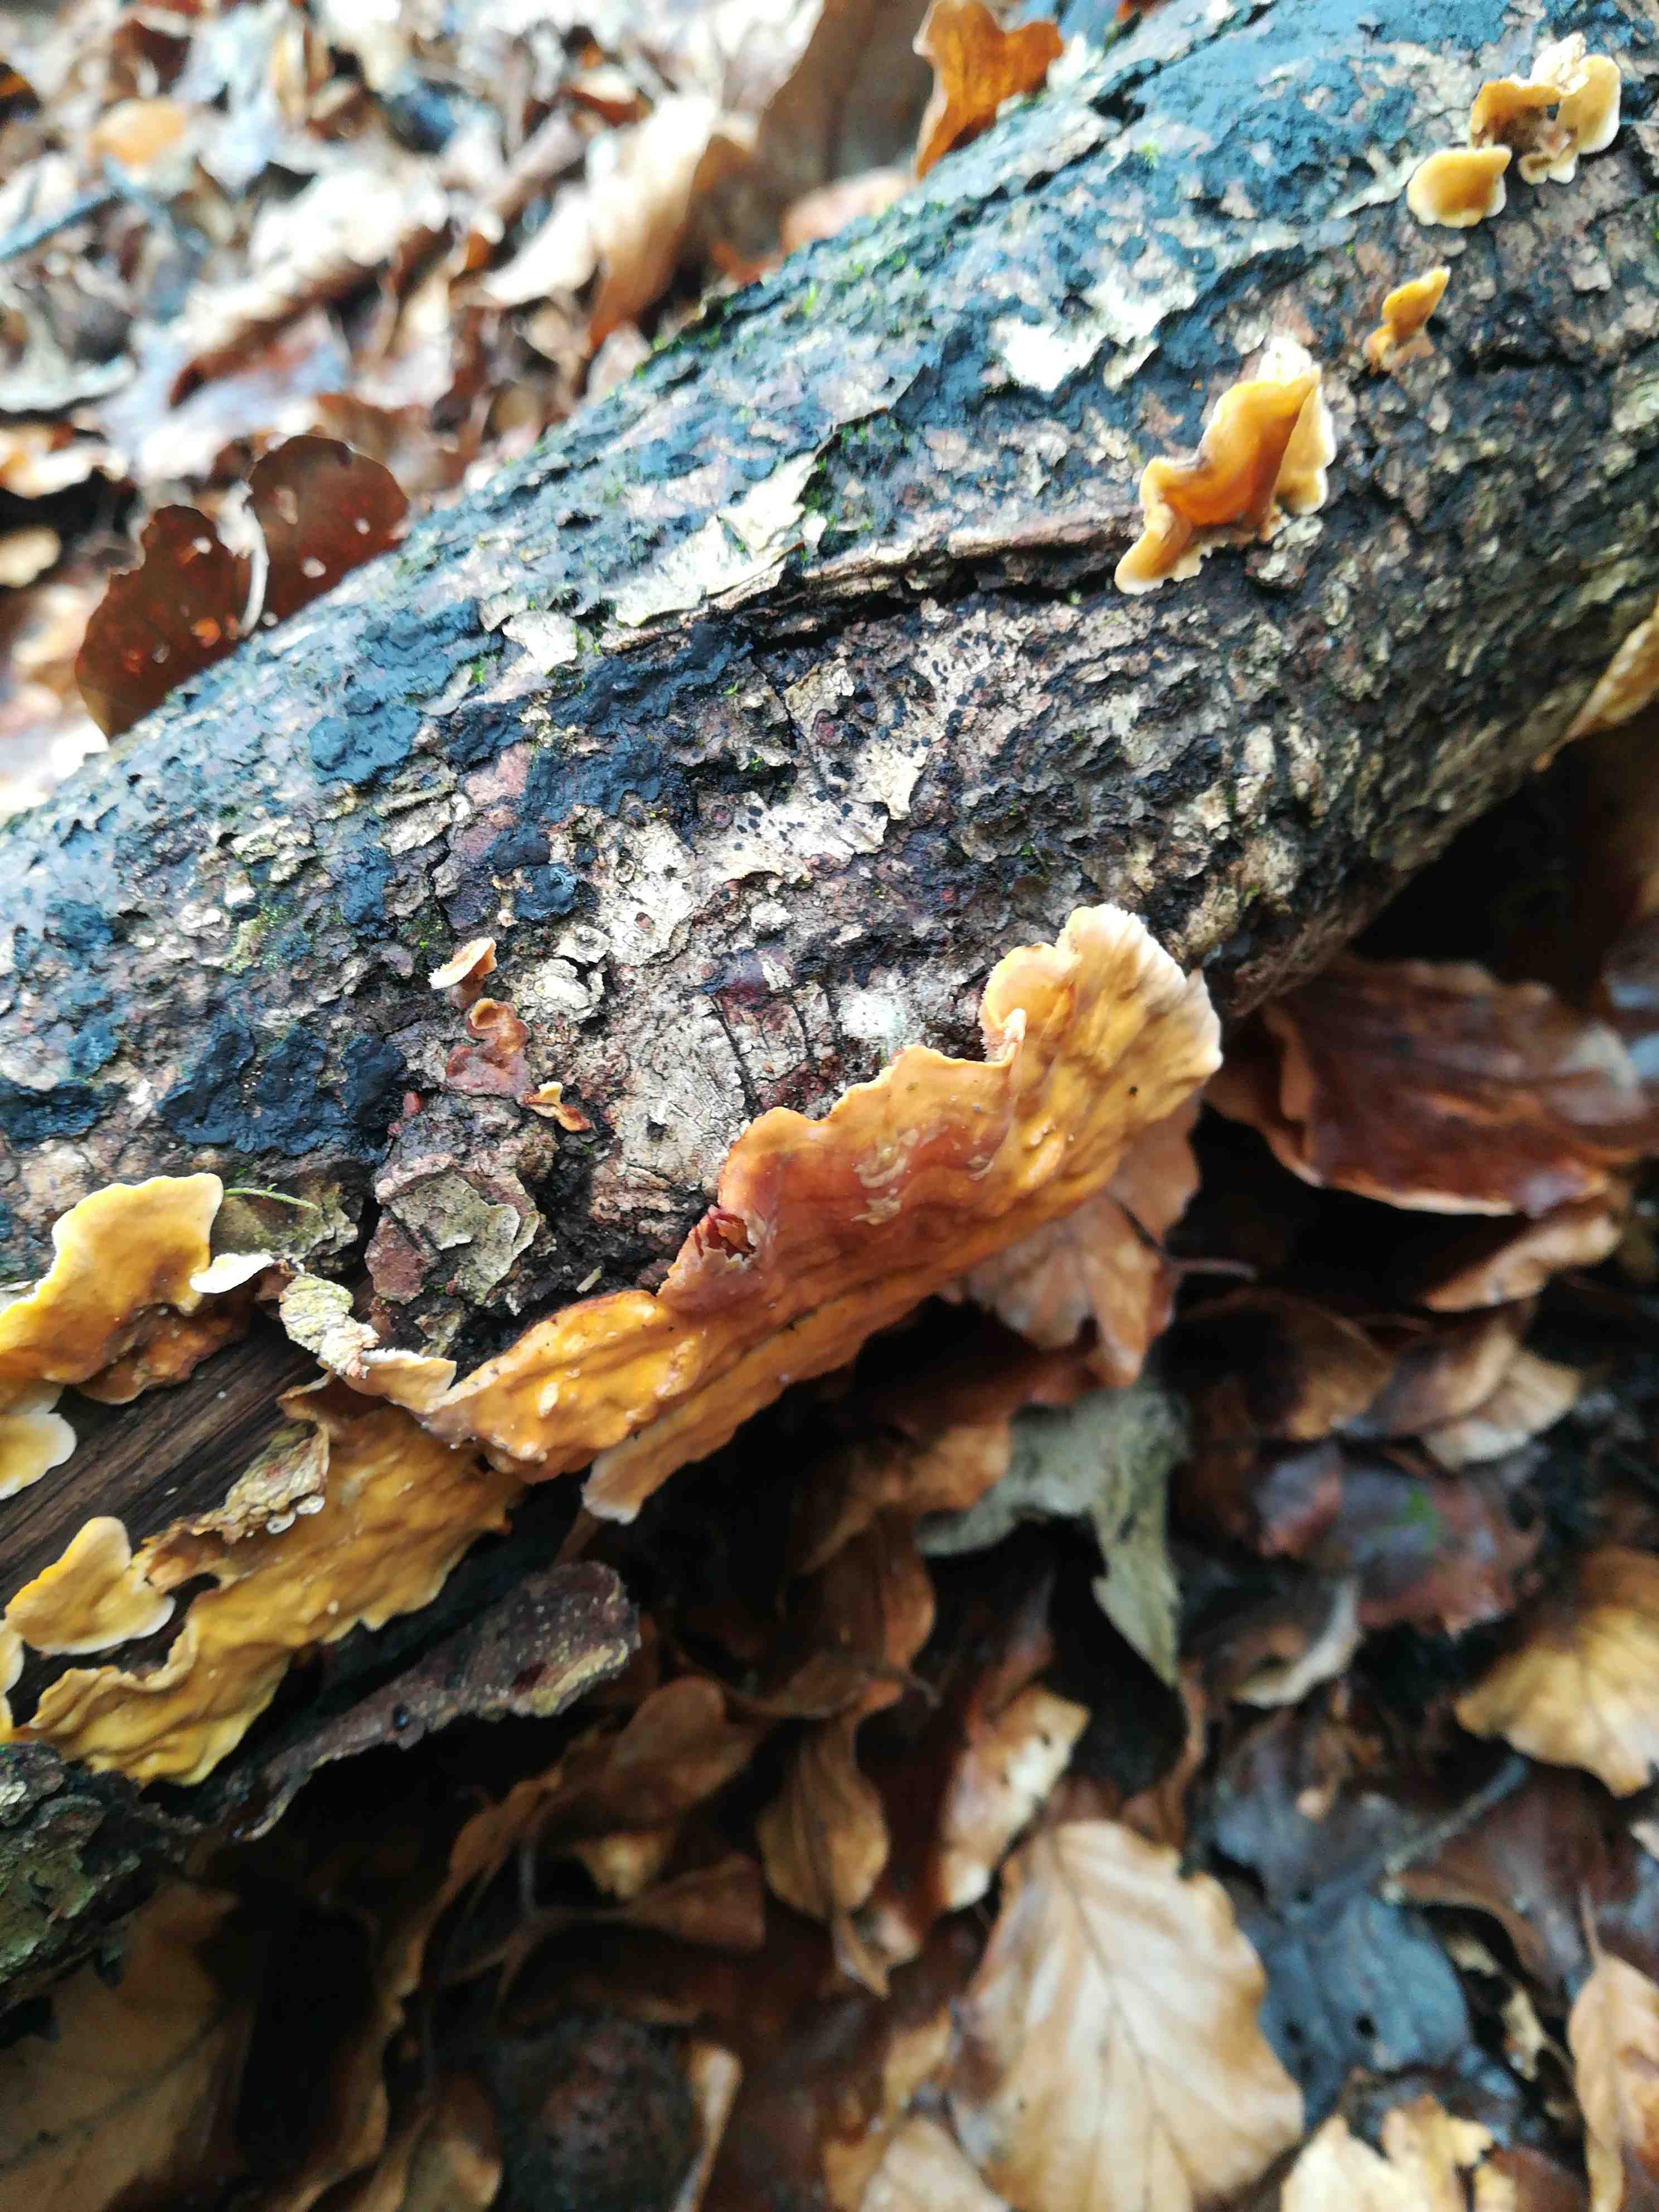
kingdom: Fungi
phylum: Basidiomycota
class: Agaricomycetes
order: Russulales
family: Stereaceae
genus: Stereum
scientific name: Stereum hirsutum
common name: håret lædersvamp
